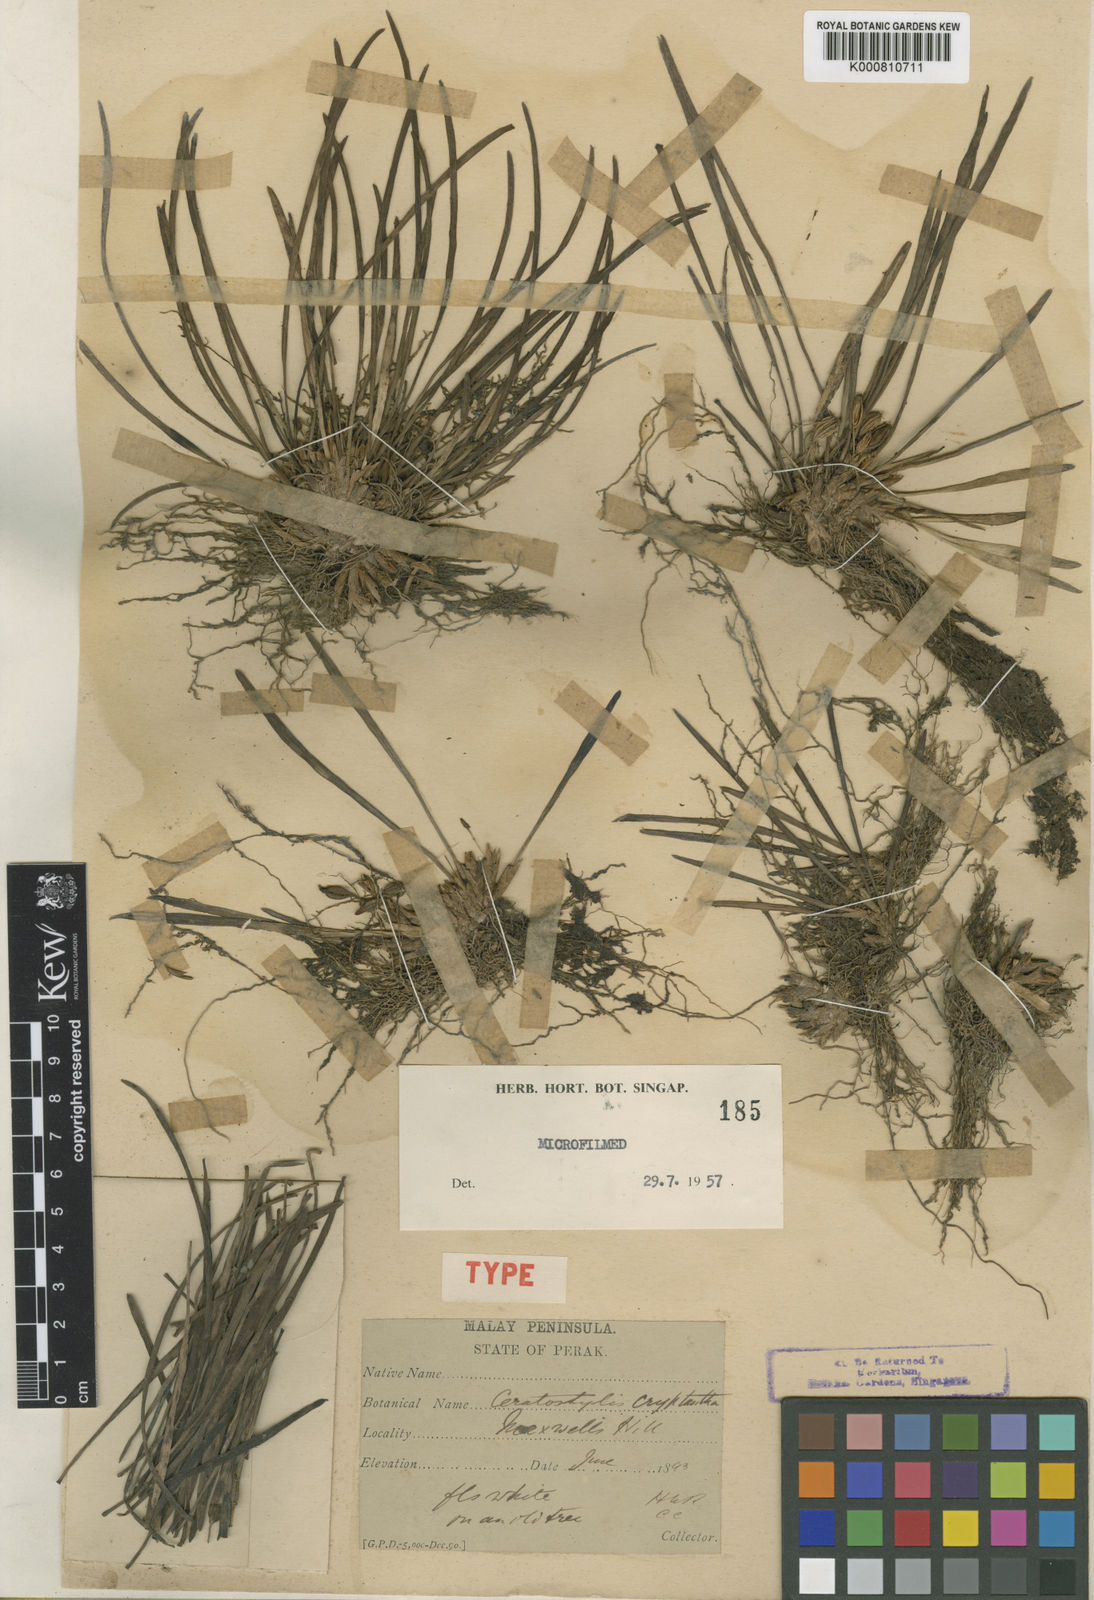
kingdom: Plantae
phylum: Tracheophyta
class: Liliopsida
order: Asparagales
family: Orchidaceae
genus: Ceratostylis
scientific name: Ceratostylis javanica
